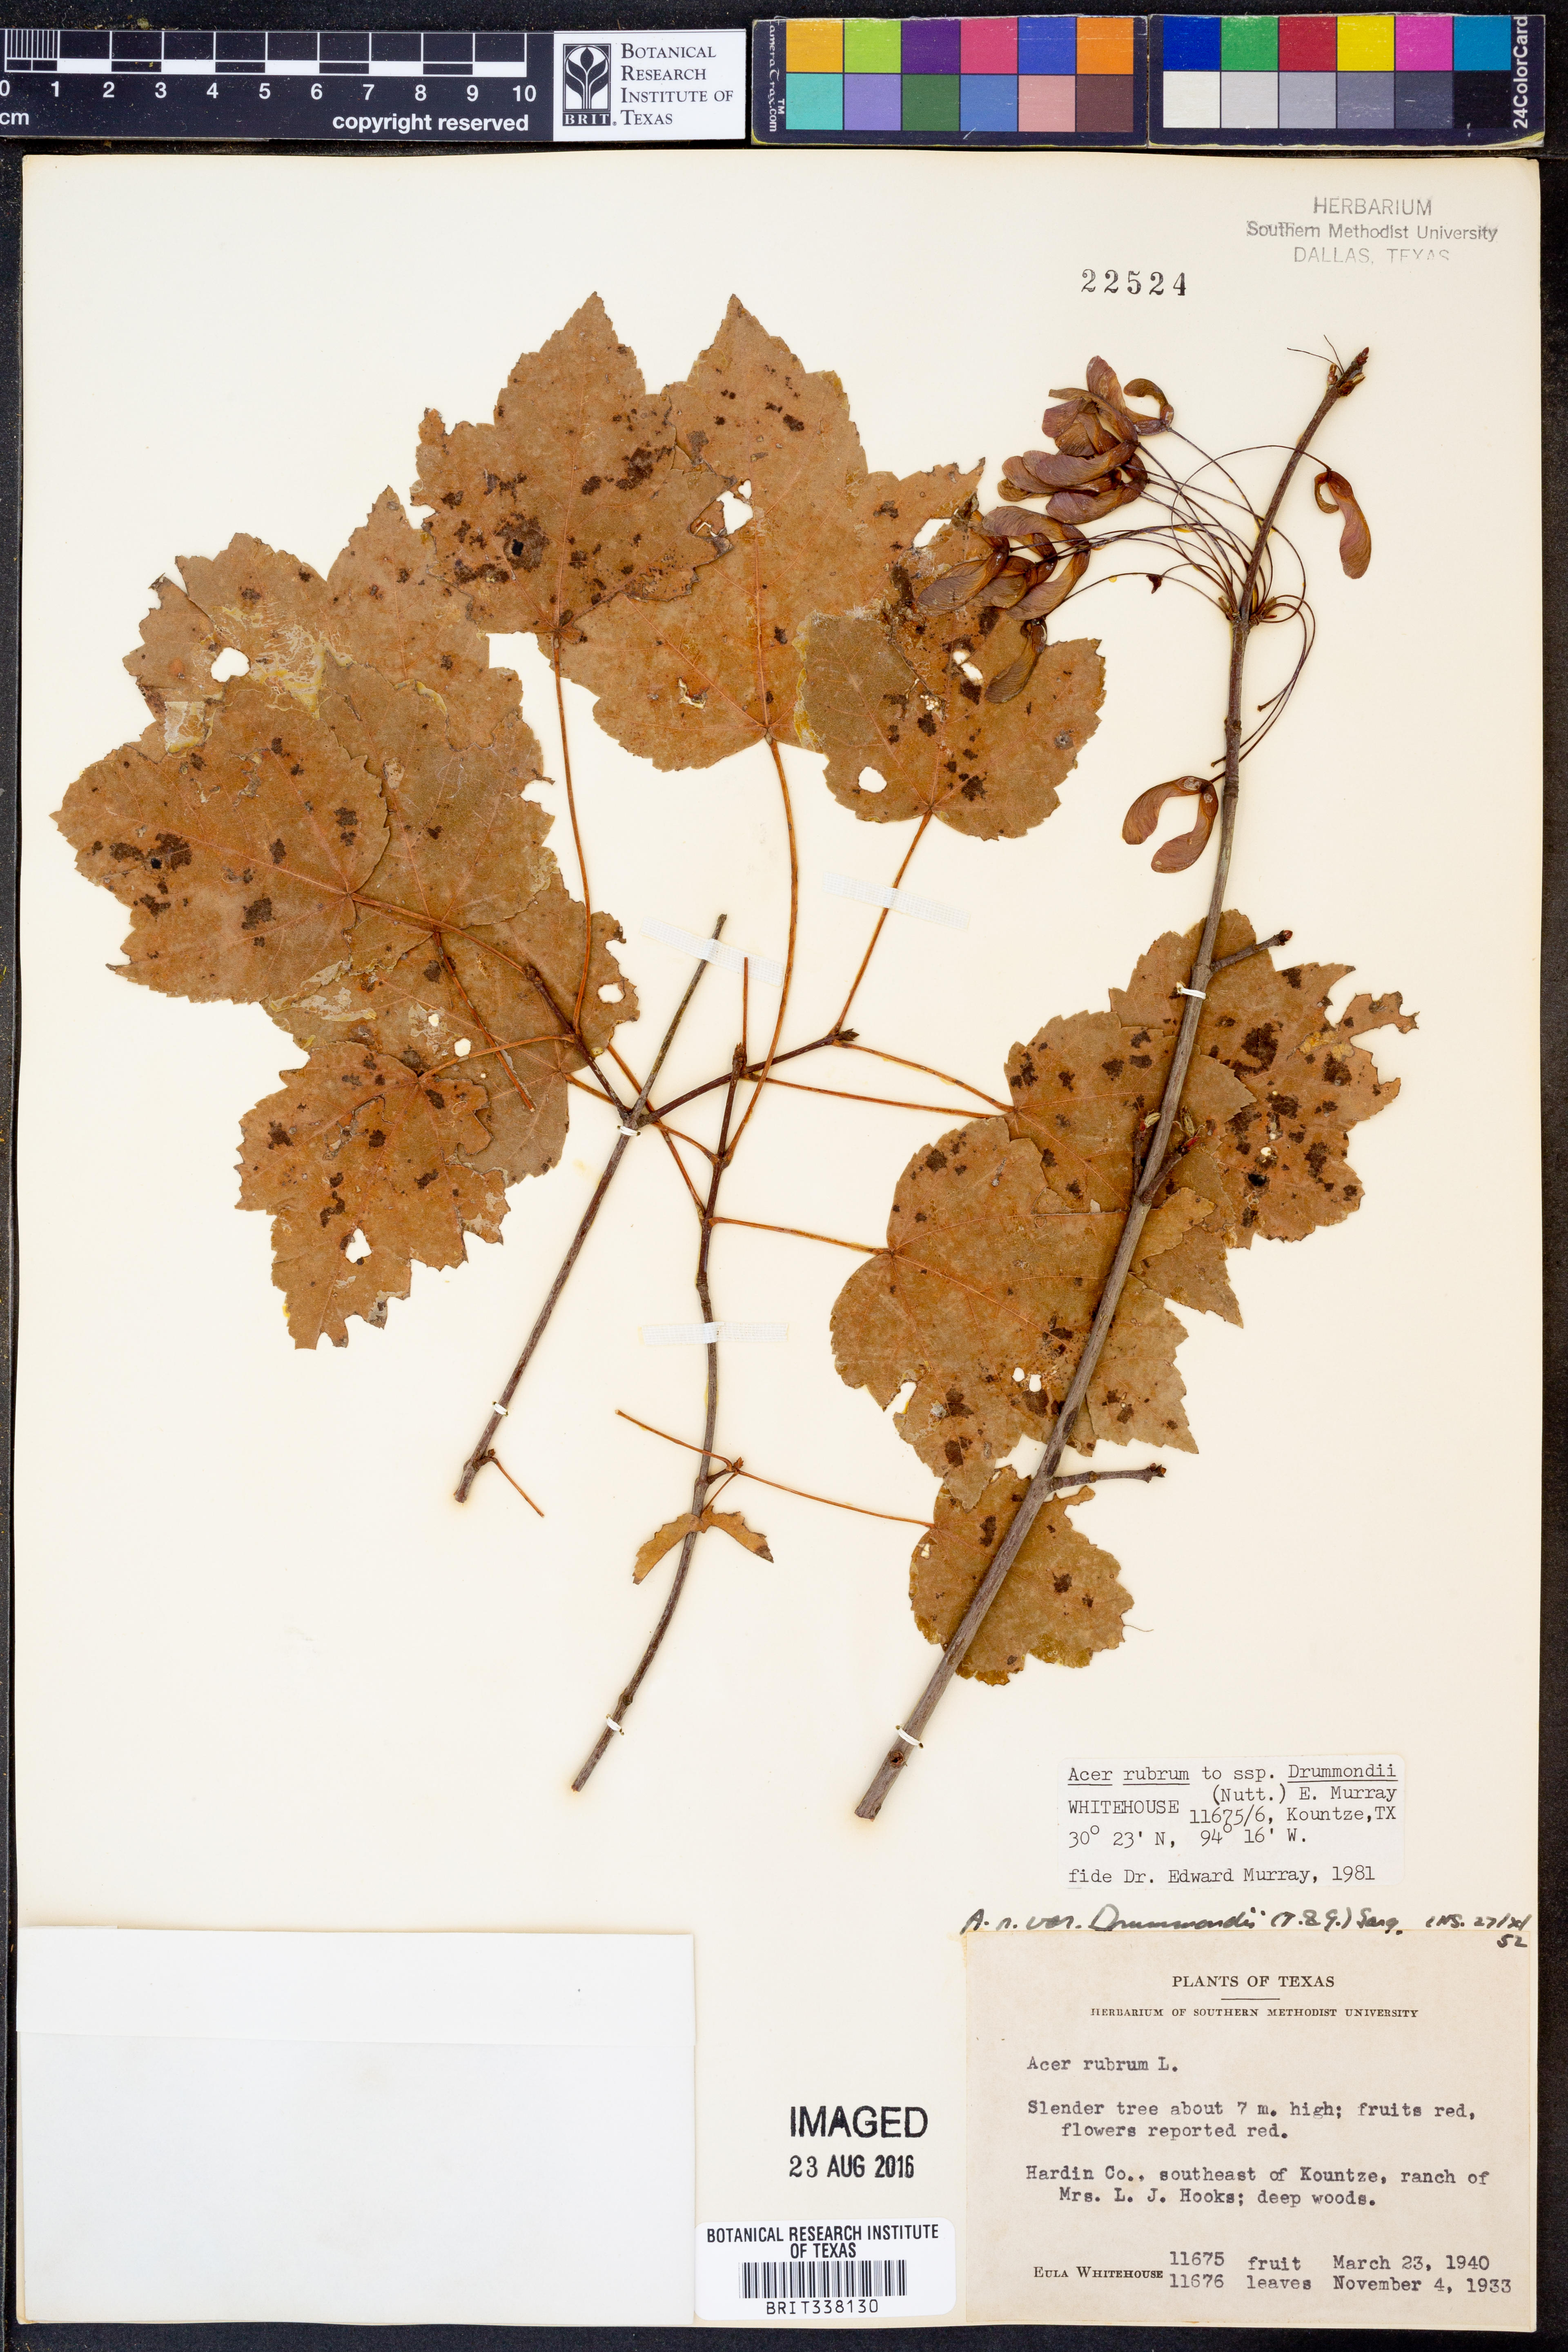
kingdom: Plantae
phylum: Tracheophyta
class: Magnoliopsida
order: Sapindales
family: Sapindaceae
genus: Acer
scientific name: Acer rubrum
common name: Red maple
